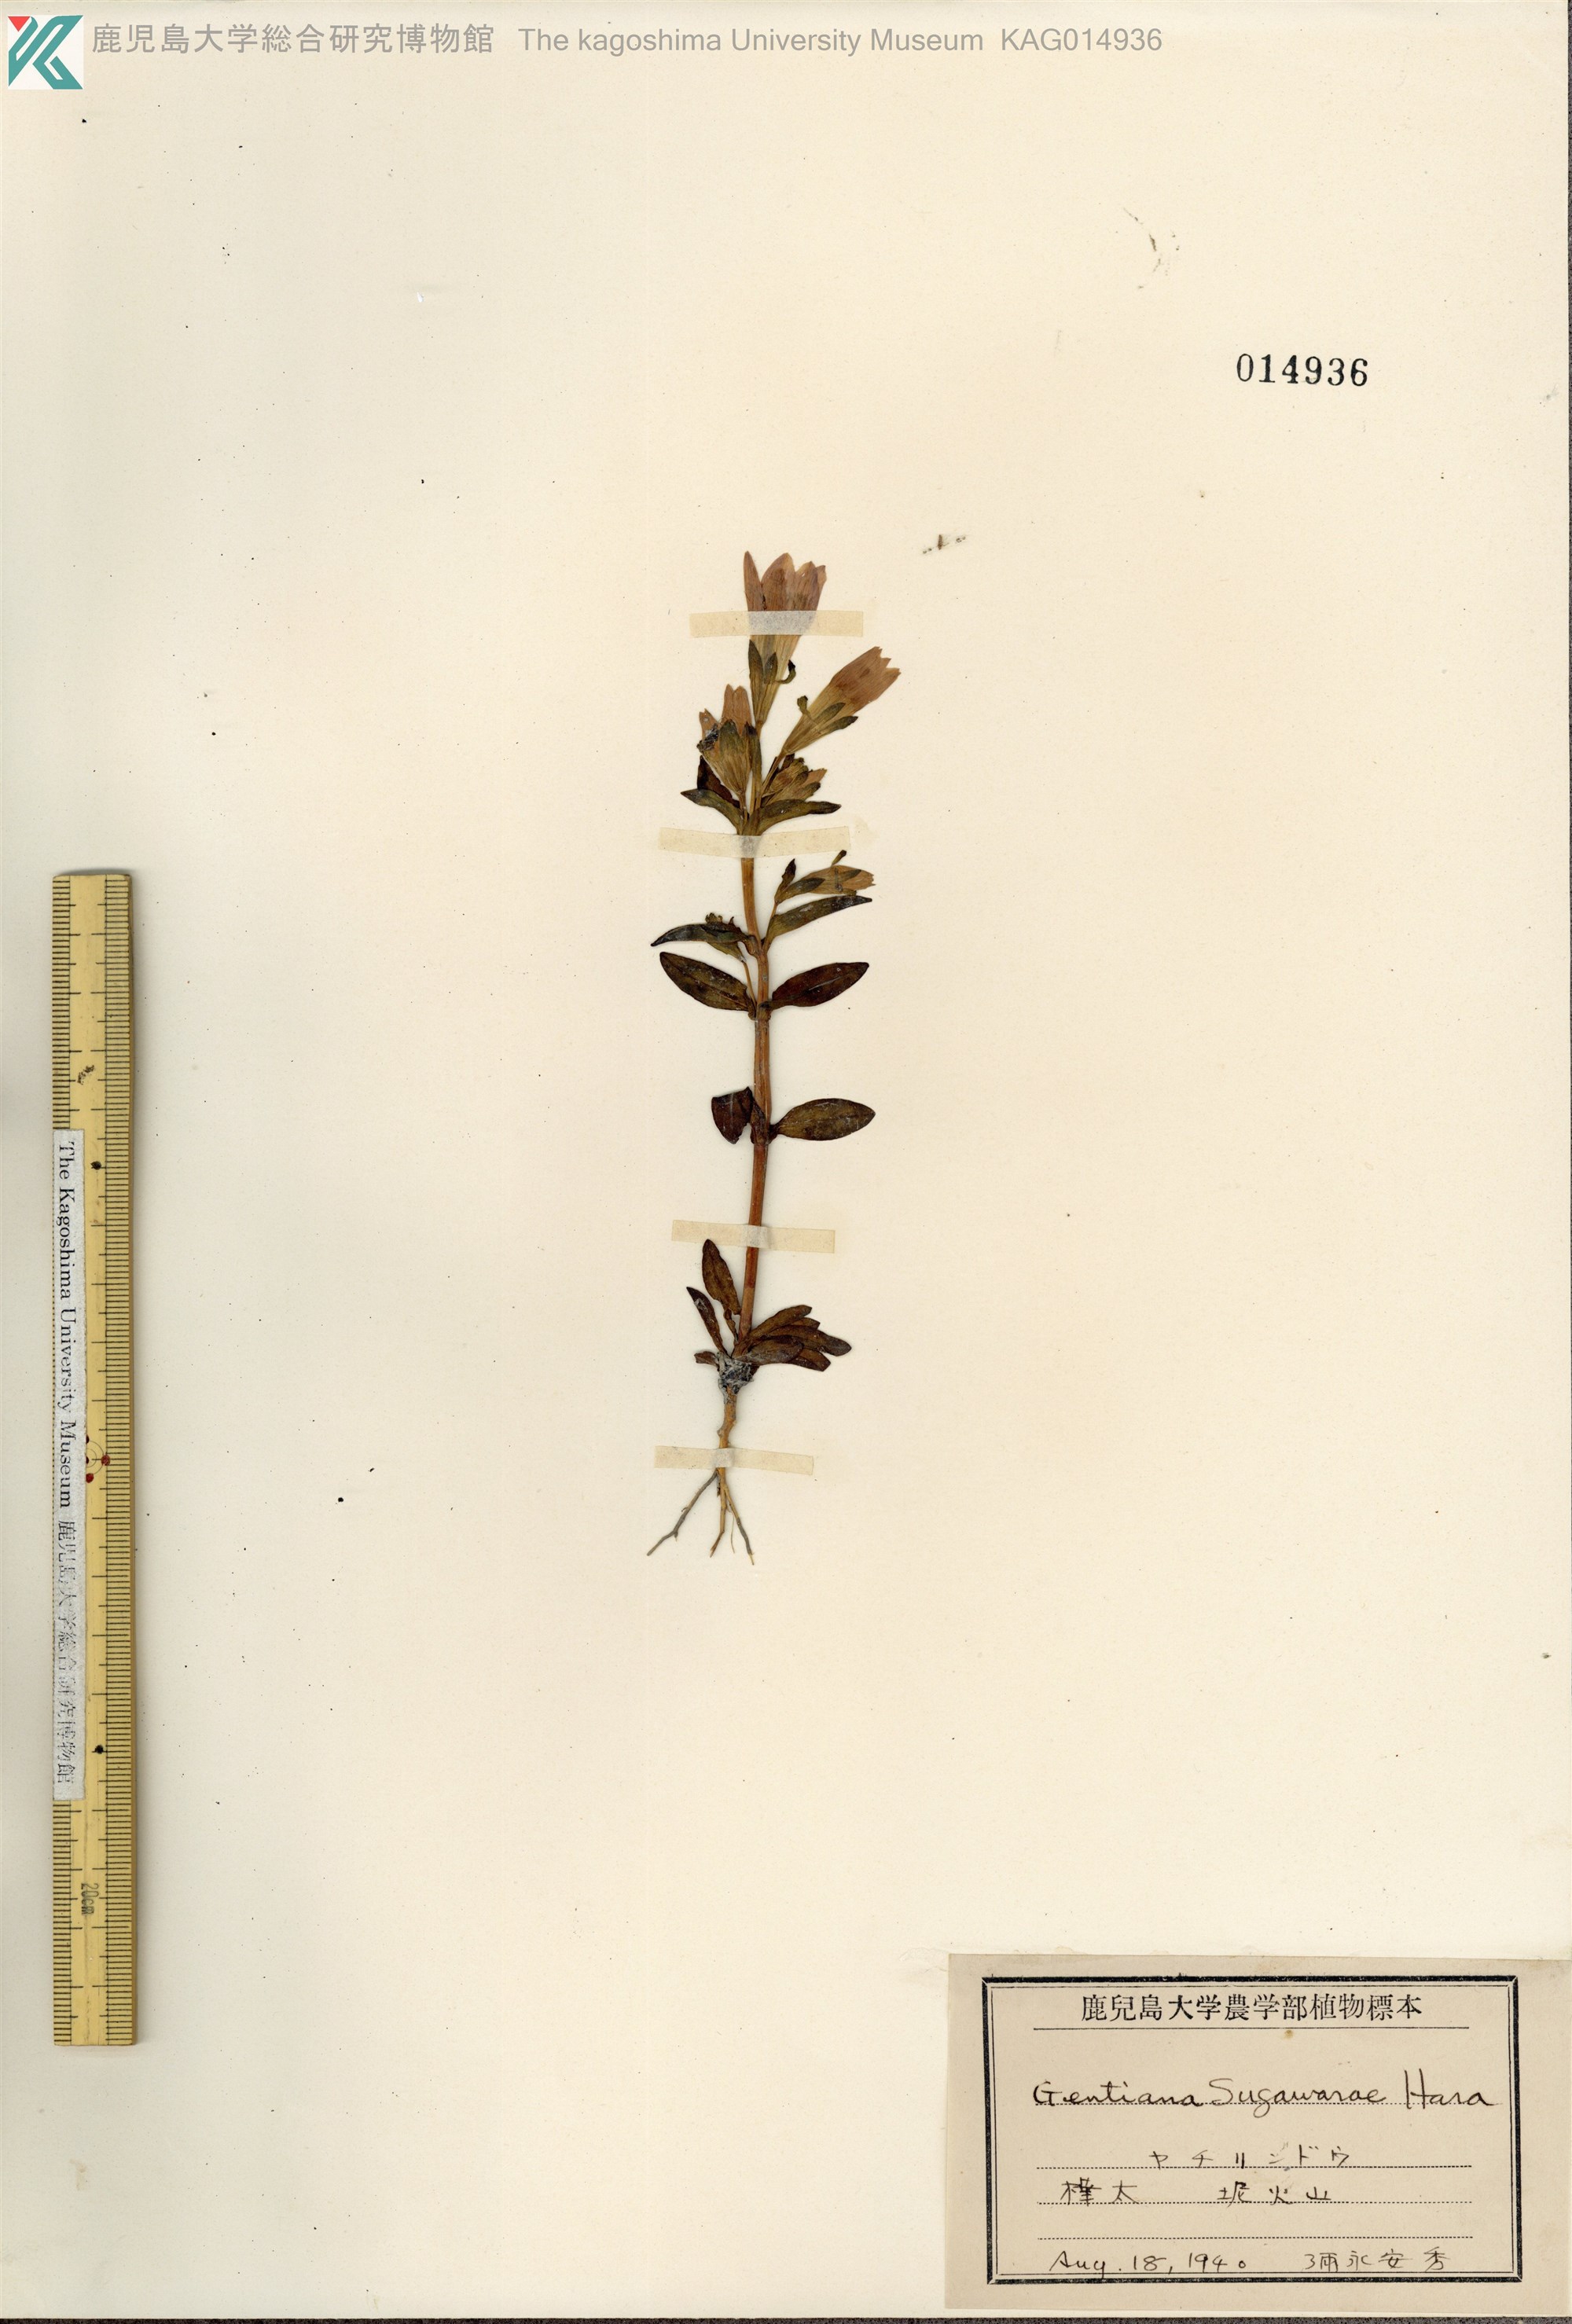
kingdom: Plantae
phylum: Tracheophyta
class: Magnoliopsida
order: Gentianales
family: Gentianaceae
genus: Gentianella
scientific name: Gentianella sugawarae
